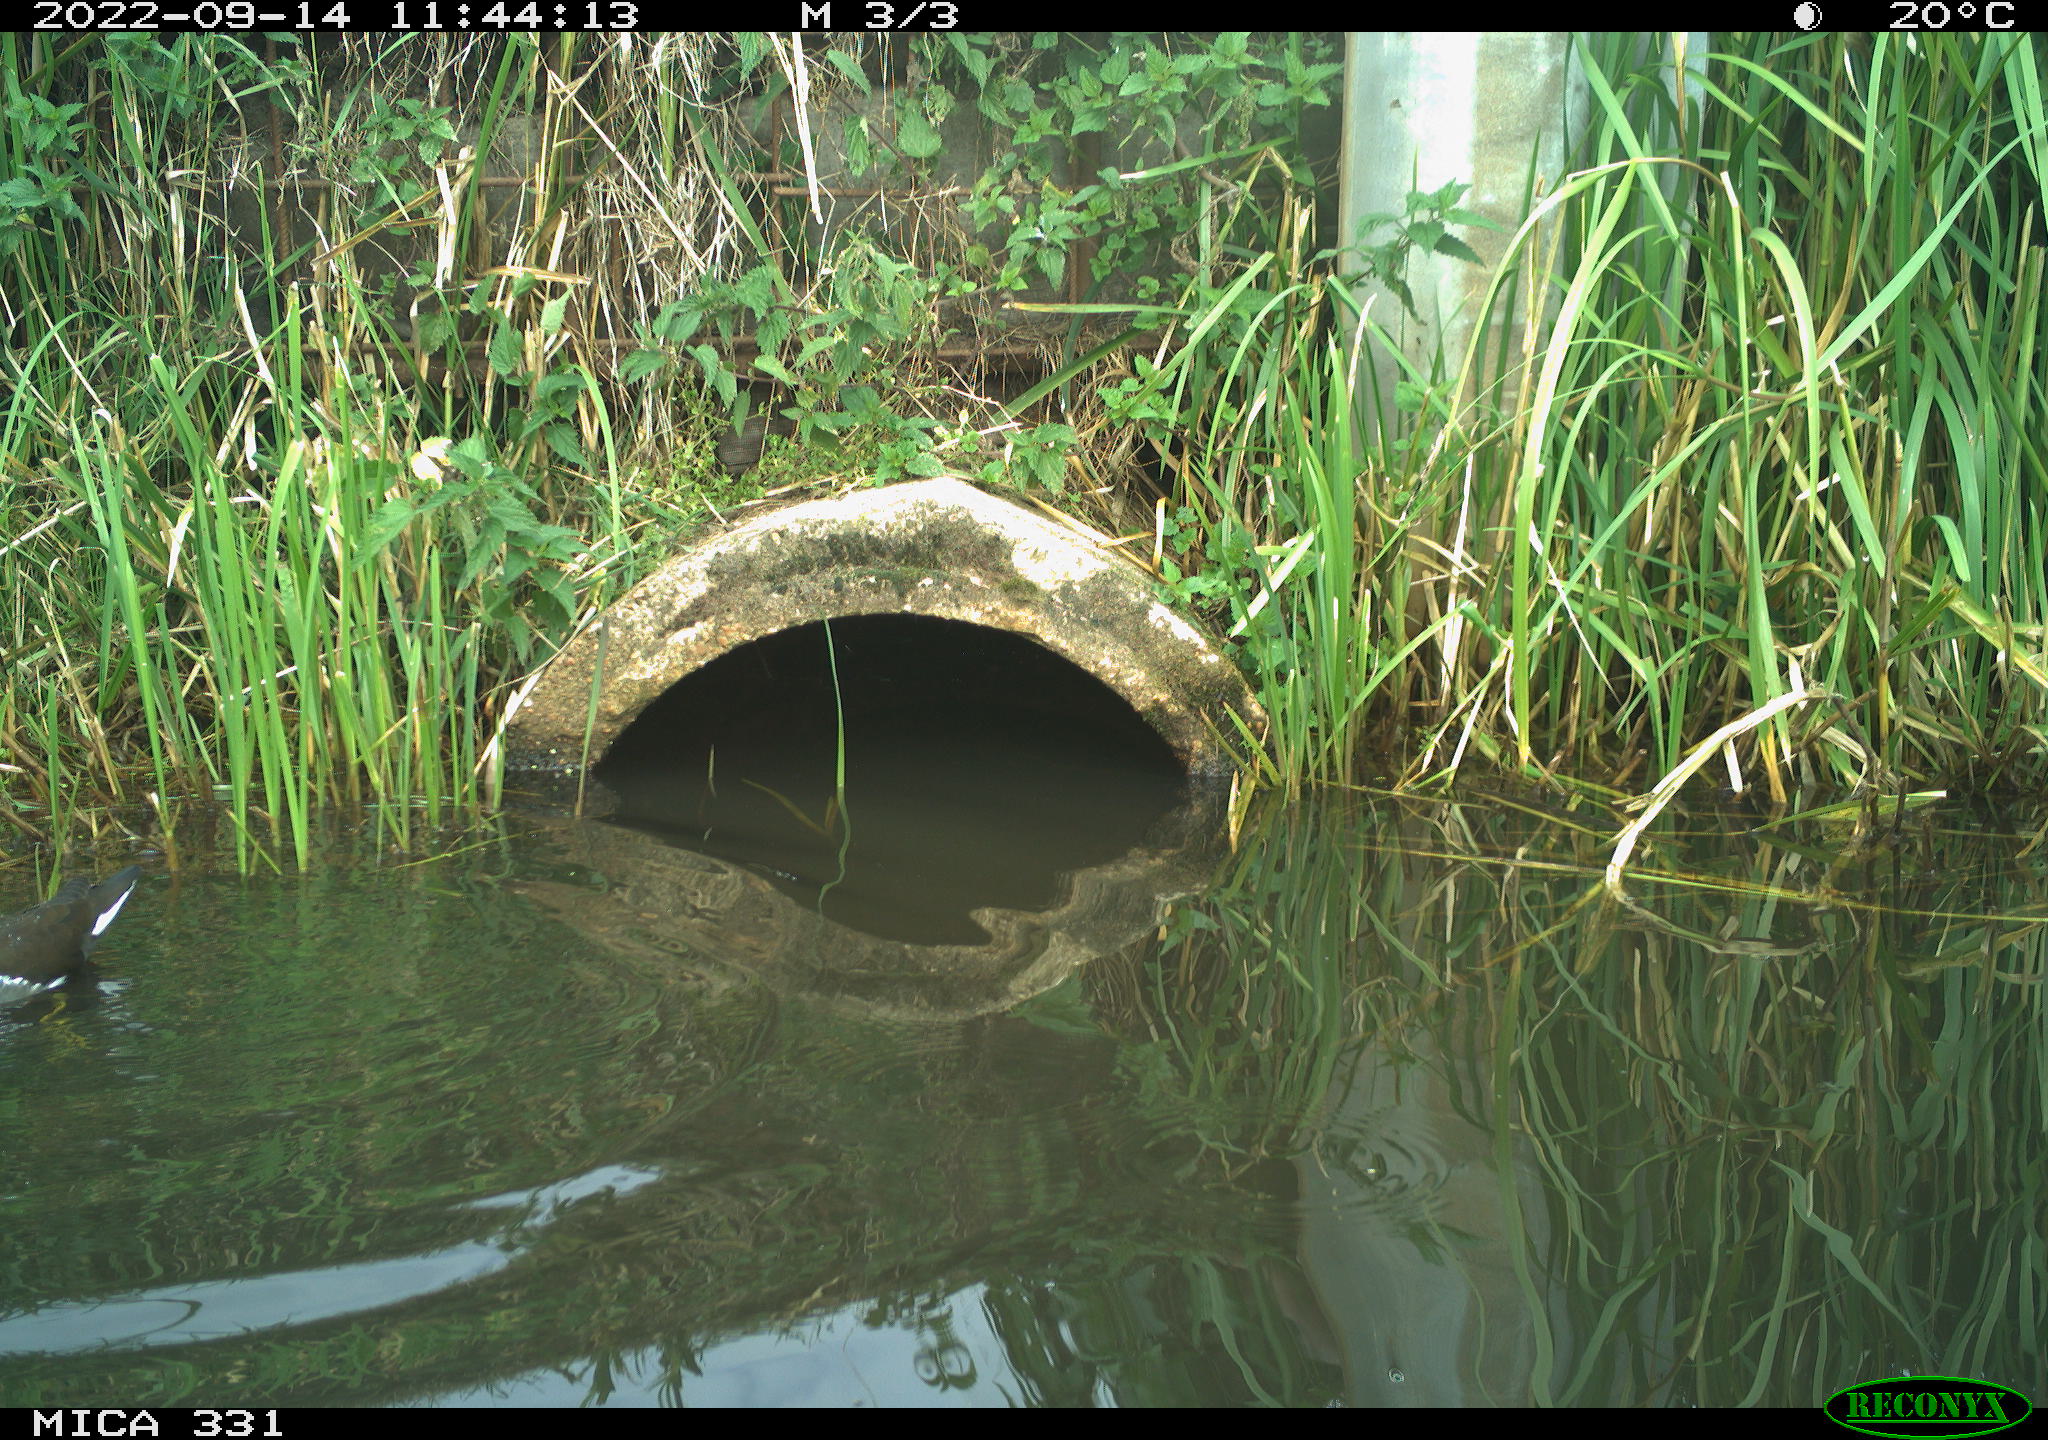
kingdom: Animalia
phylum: Chordata
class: Aves
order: Gruiformes
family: Rallidae
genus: Gallinula
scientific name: Gallinula chloropus
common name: Common moorhen
